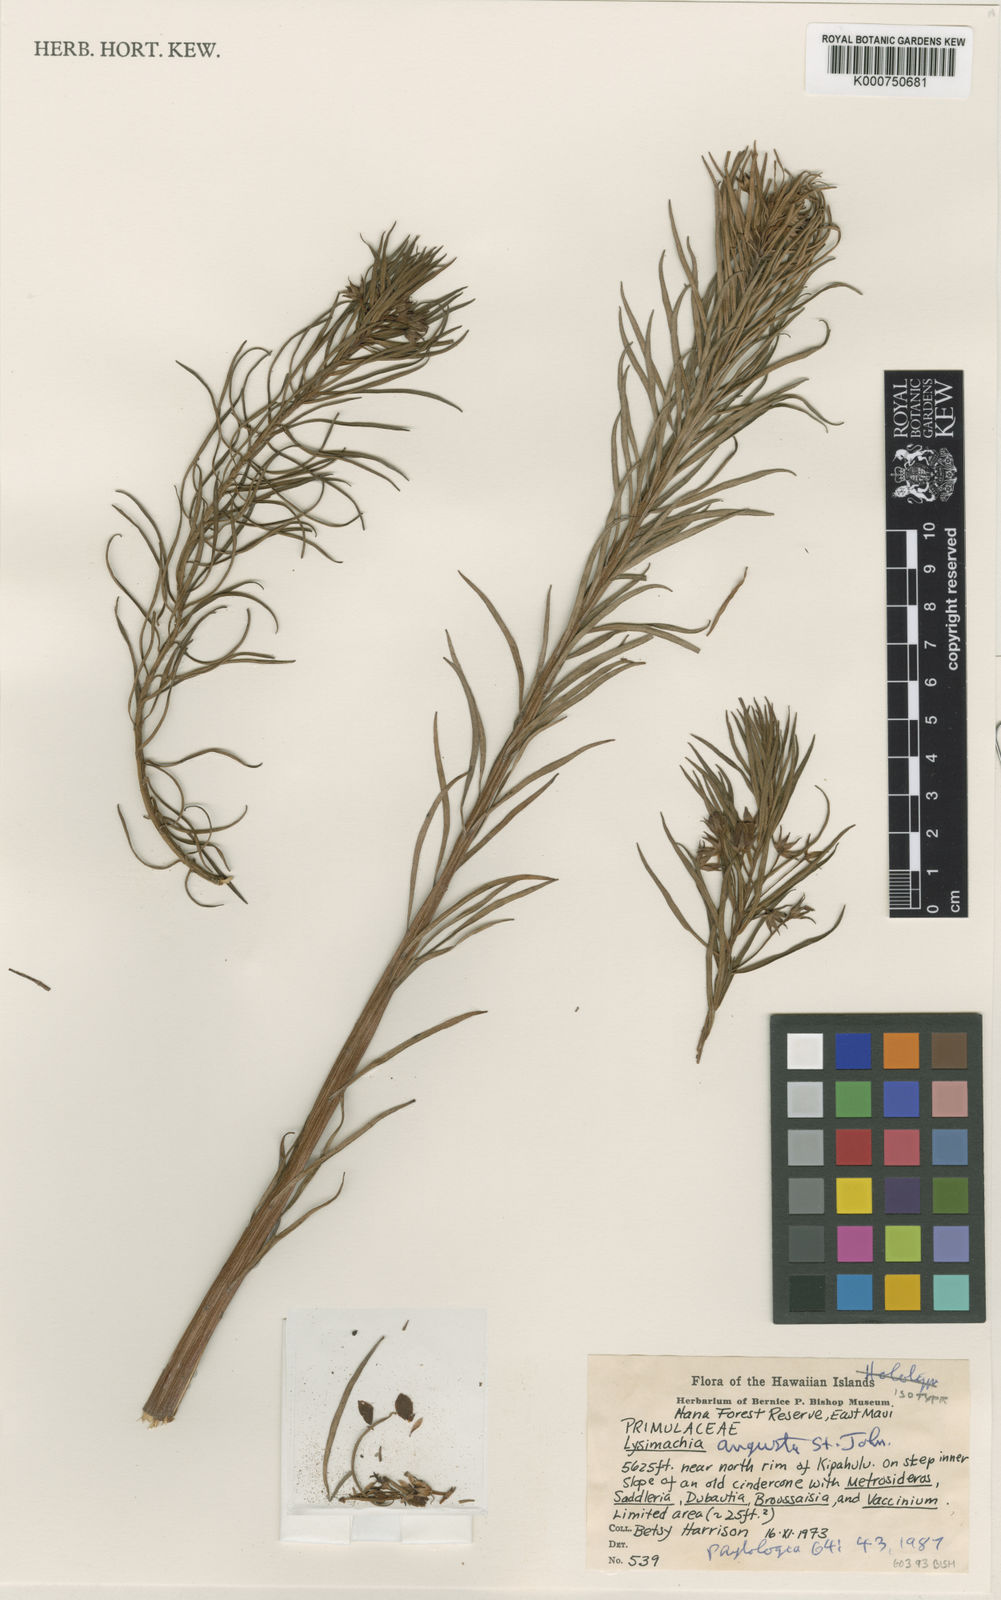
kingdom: Plantae
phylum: Tracheophyta
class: Magnoliopsida
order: Ericales
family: Primulaceae
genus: Lysimachia
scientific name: Lysimachia remyi
